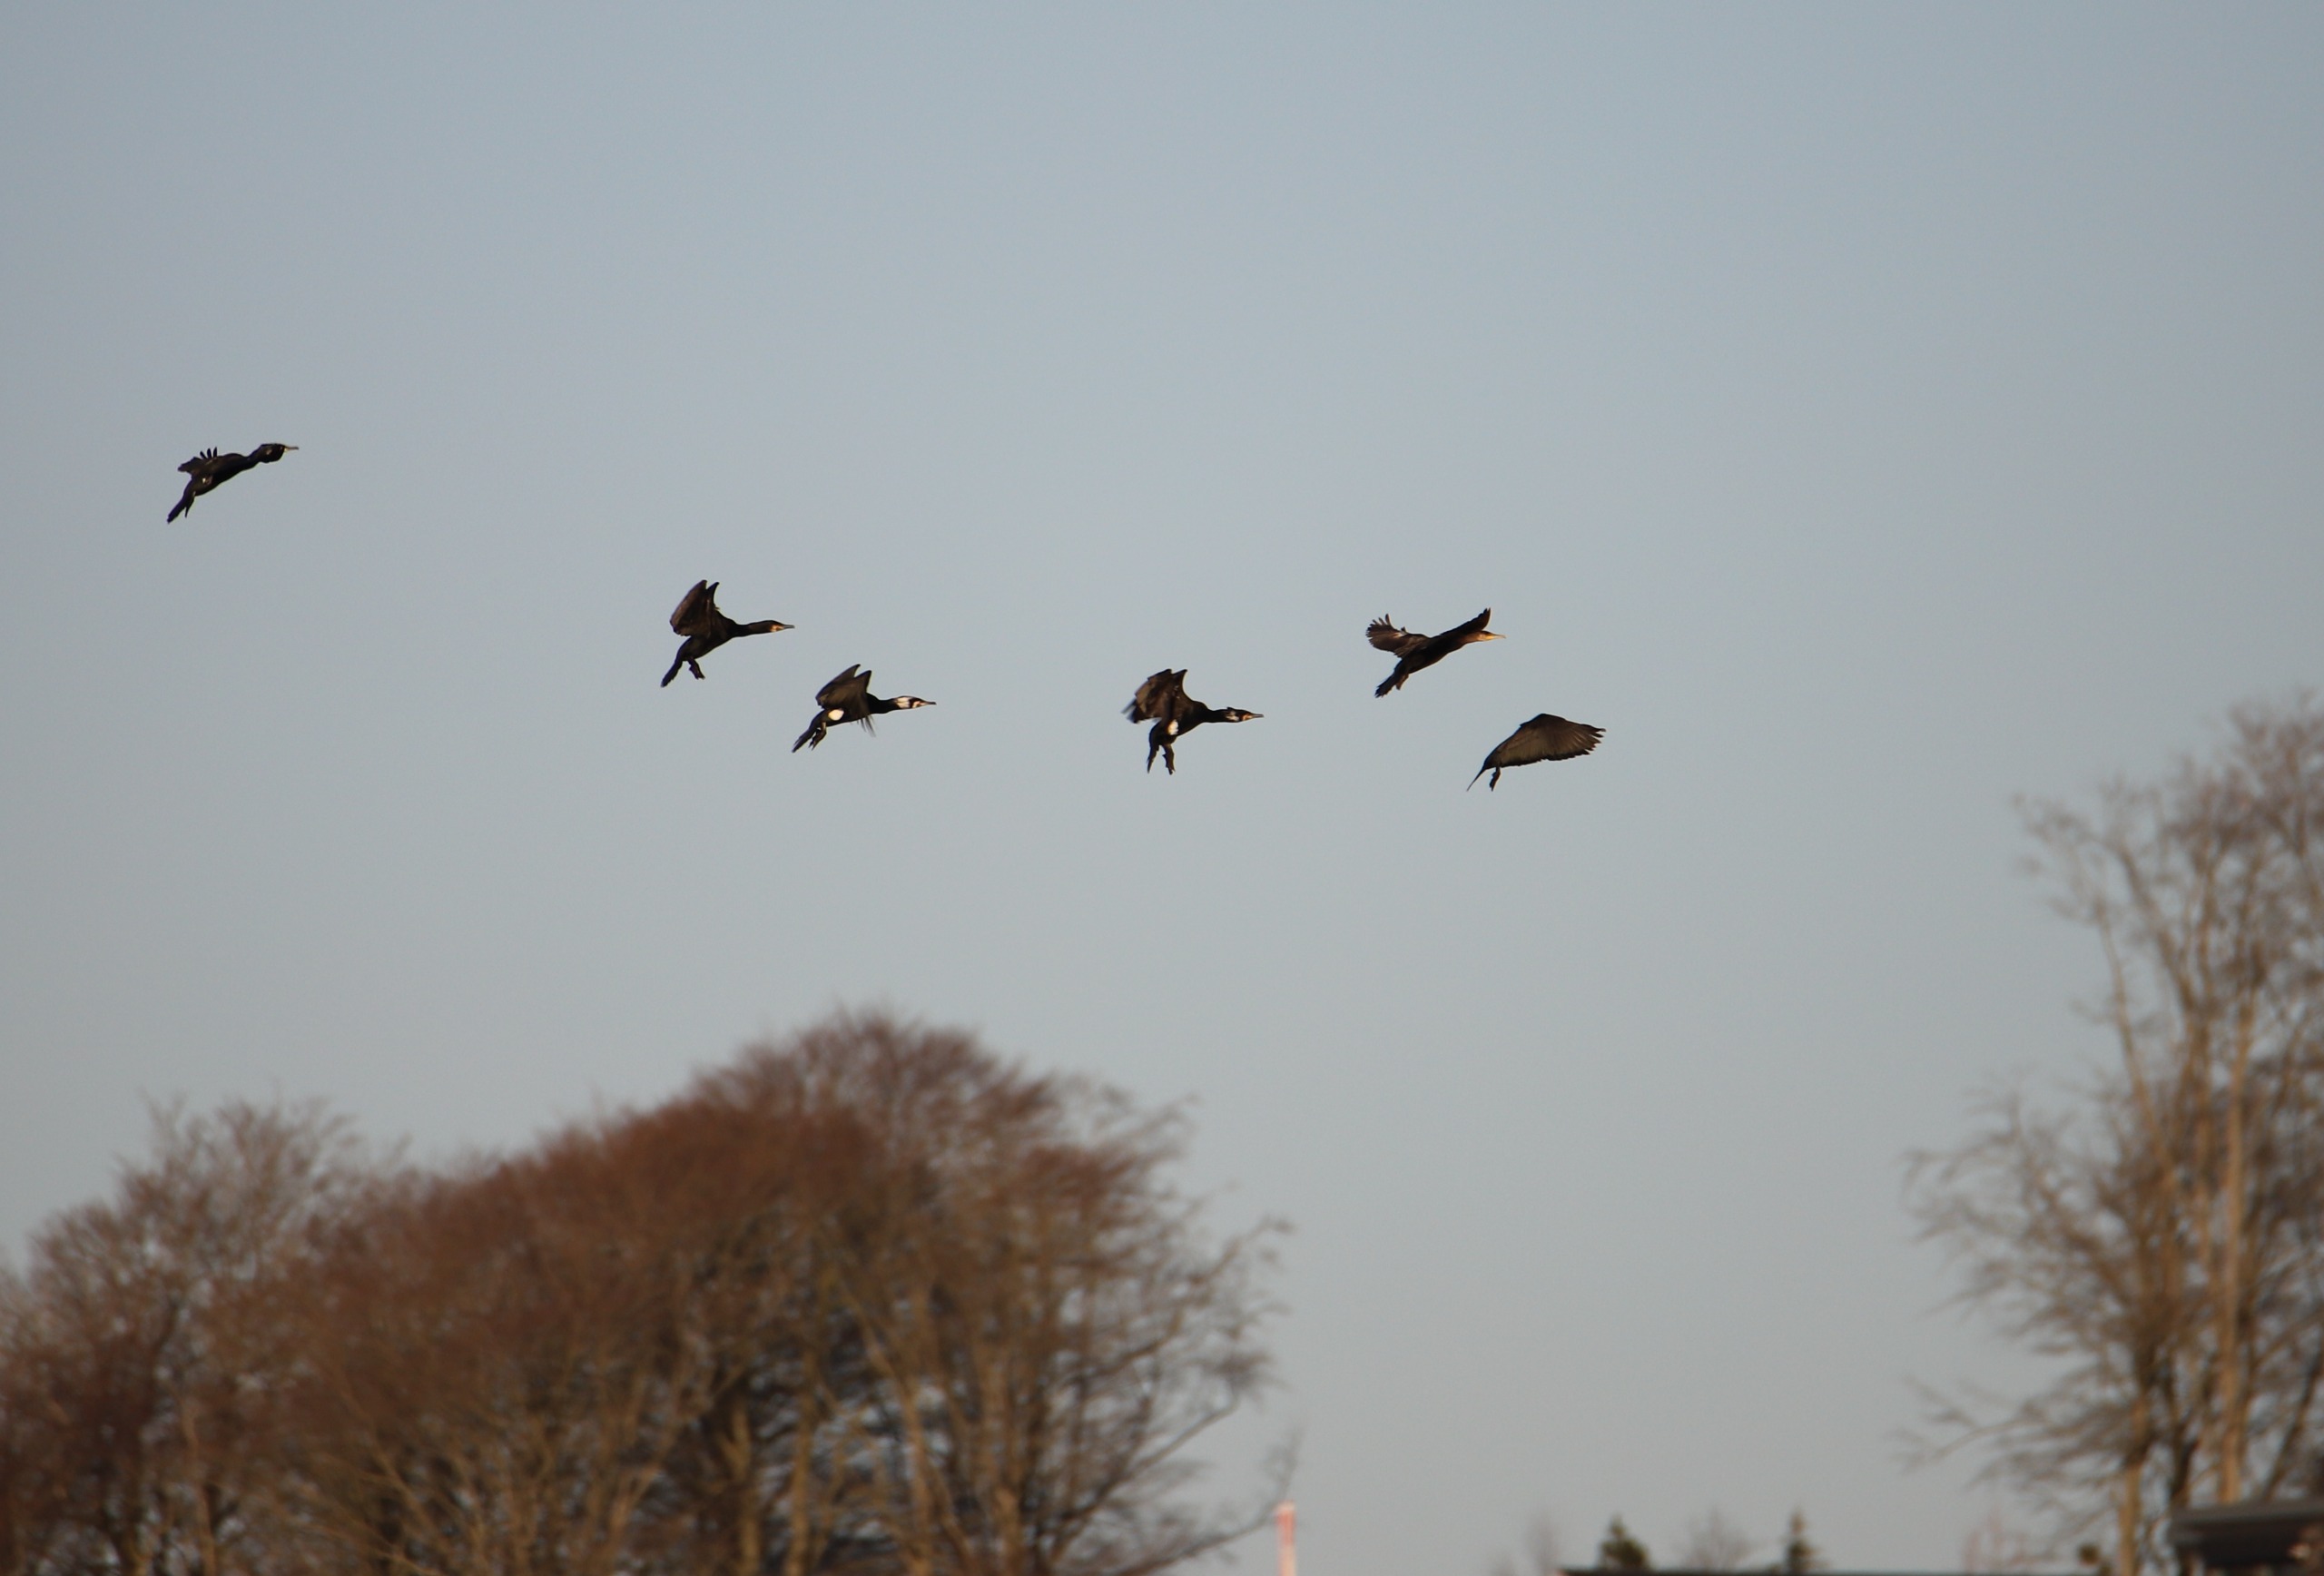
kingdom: Animalia
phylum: Chordata
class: Aves
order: Suliformes
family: Phalacrocoracidae
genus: Phalacrocorax
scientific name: Phalacrocorax carbo
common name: Skarv
